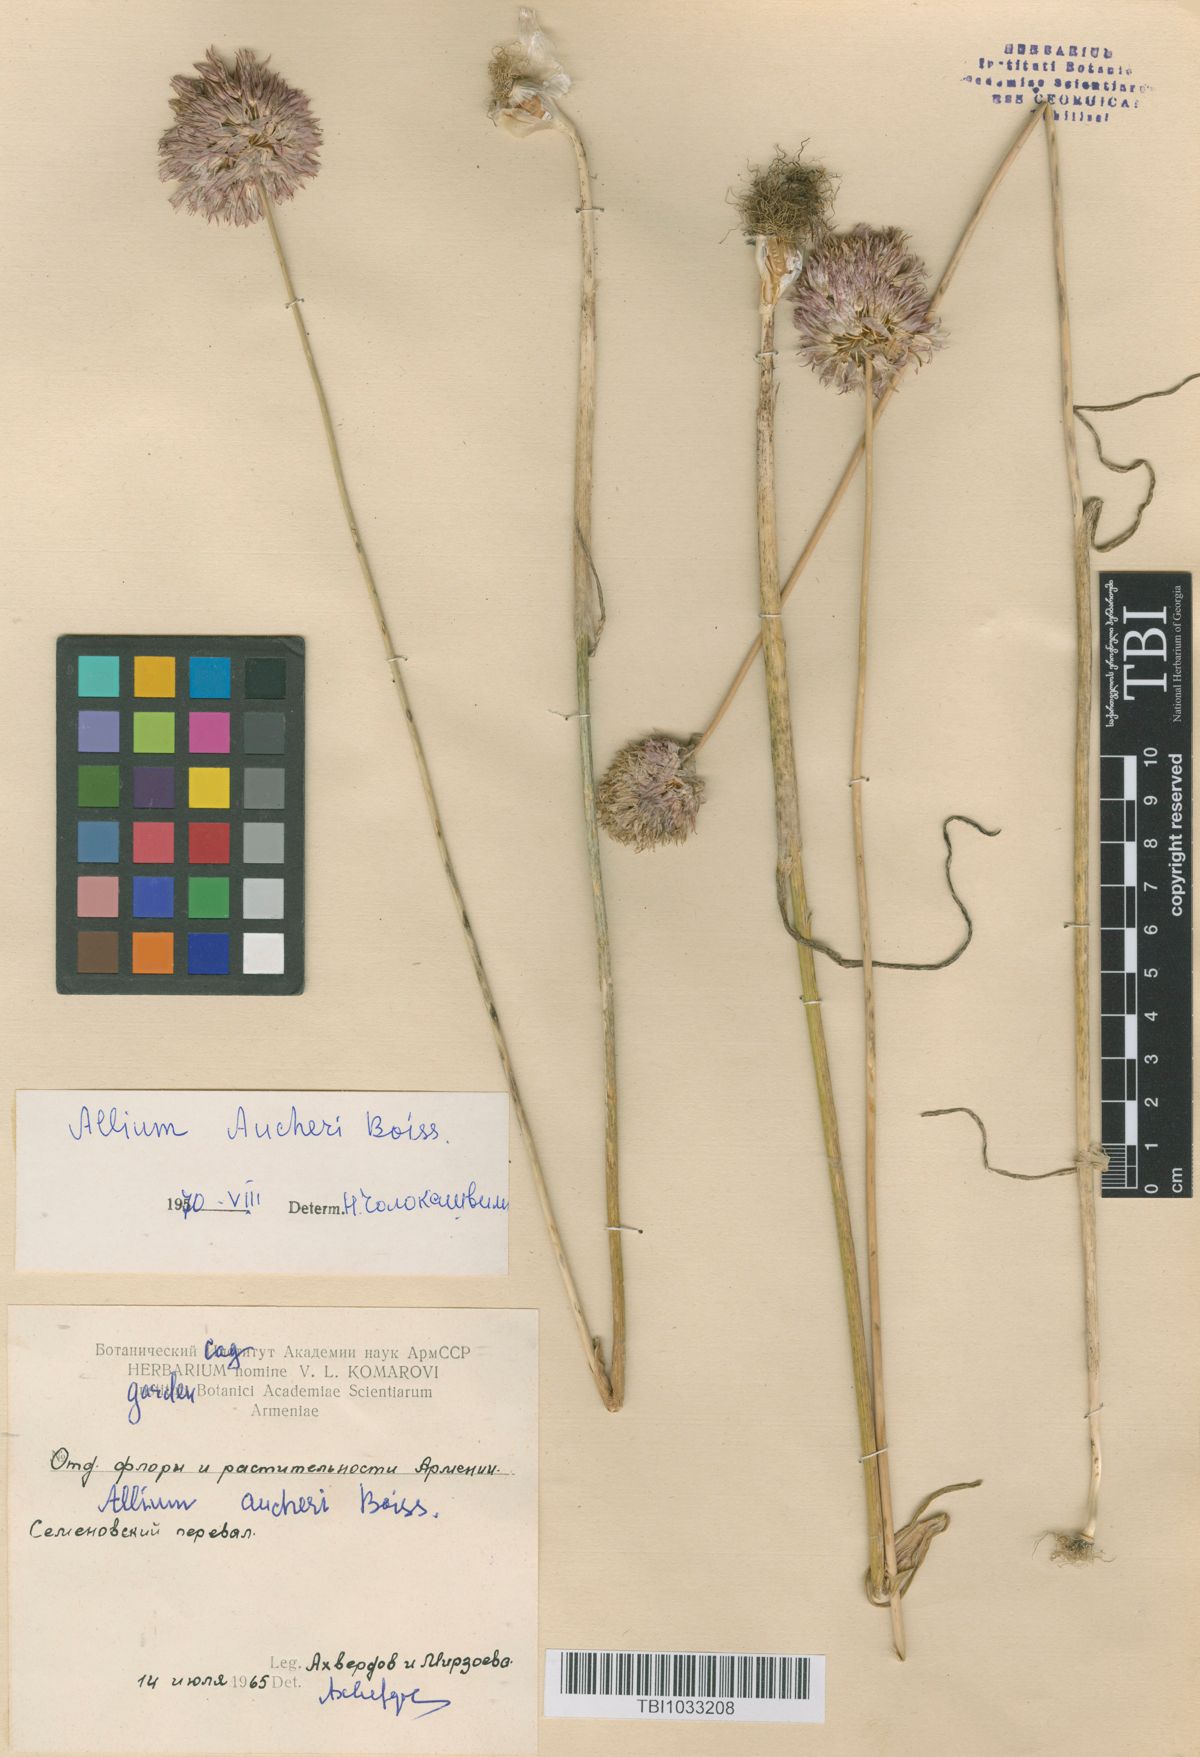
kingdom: Plantae
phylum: Tracheophyta
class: Liliopsida
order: Asparagales
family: Amaryllidaceae
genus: Allium
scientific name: Allium aucheri
